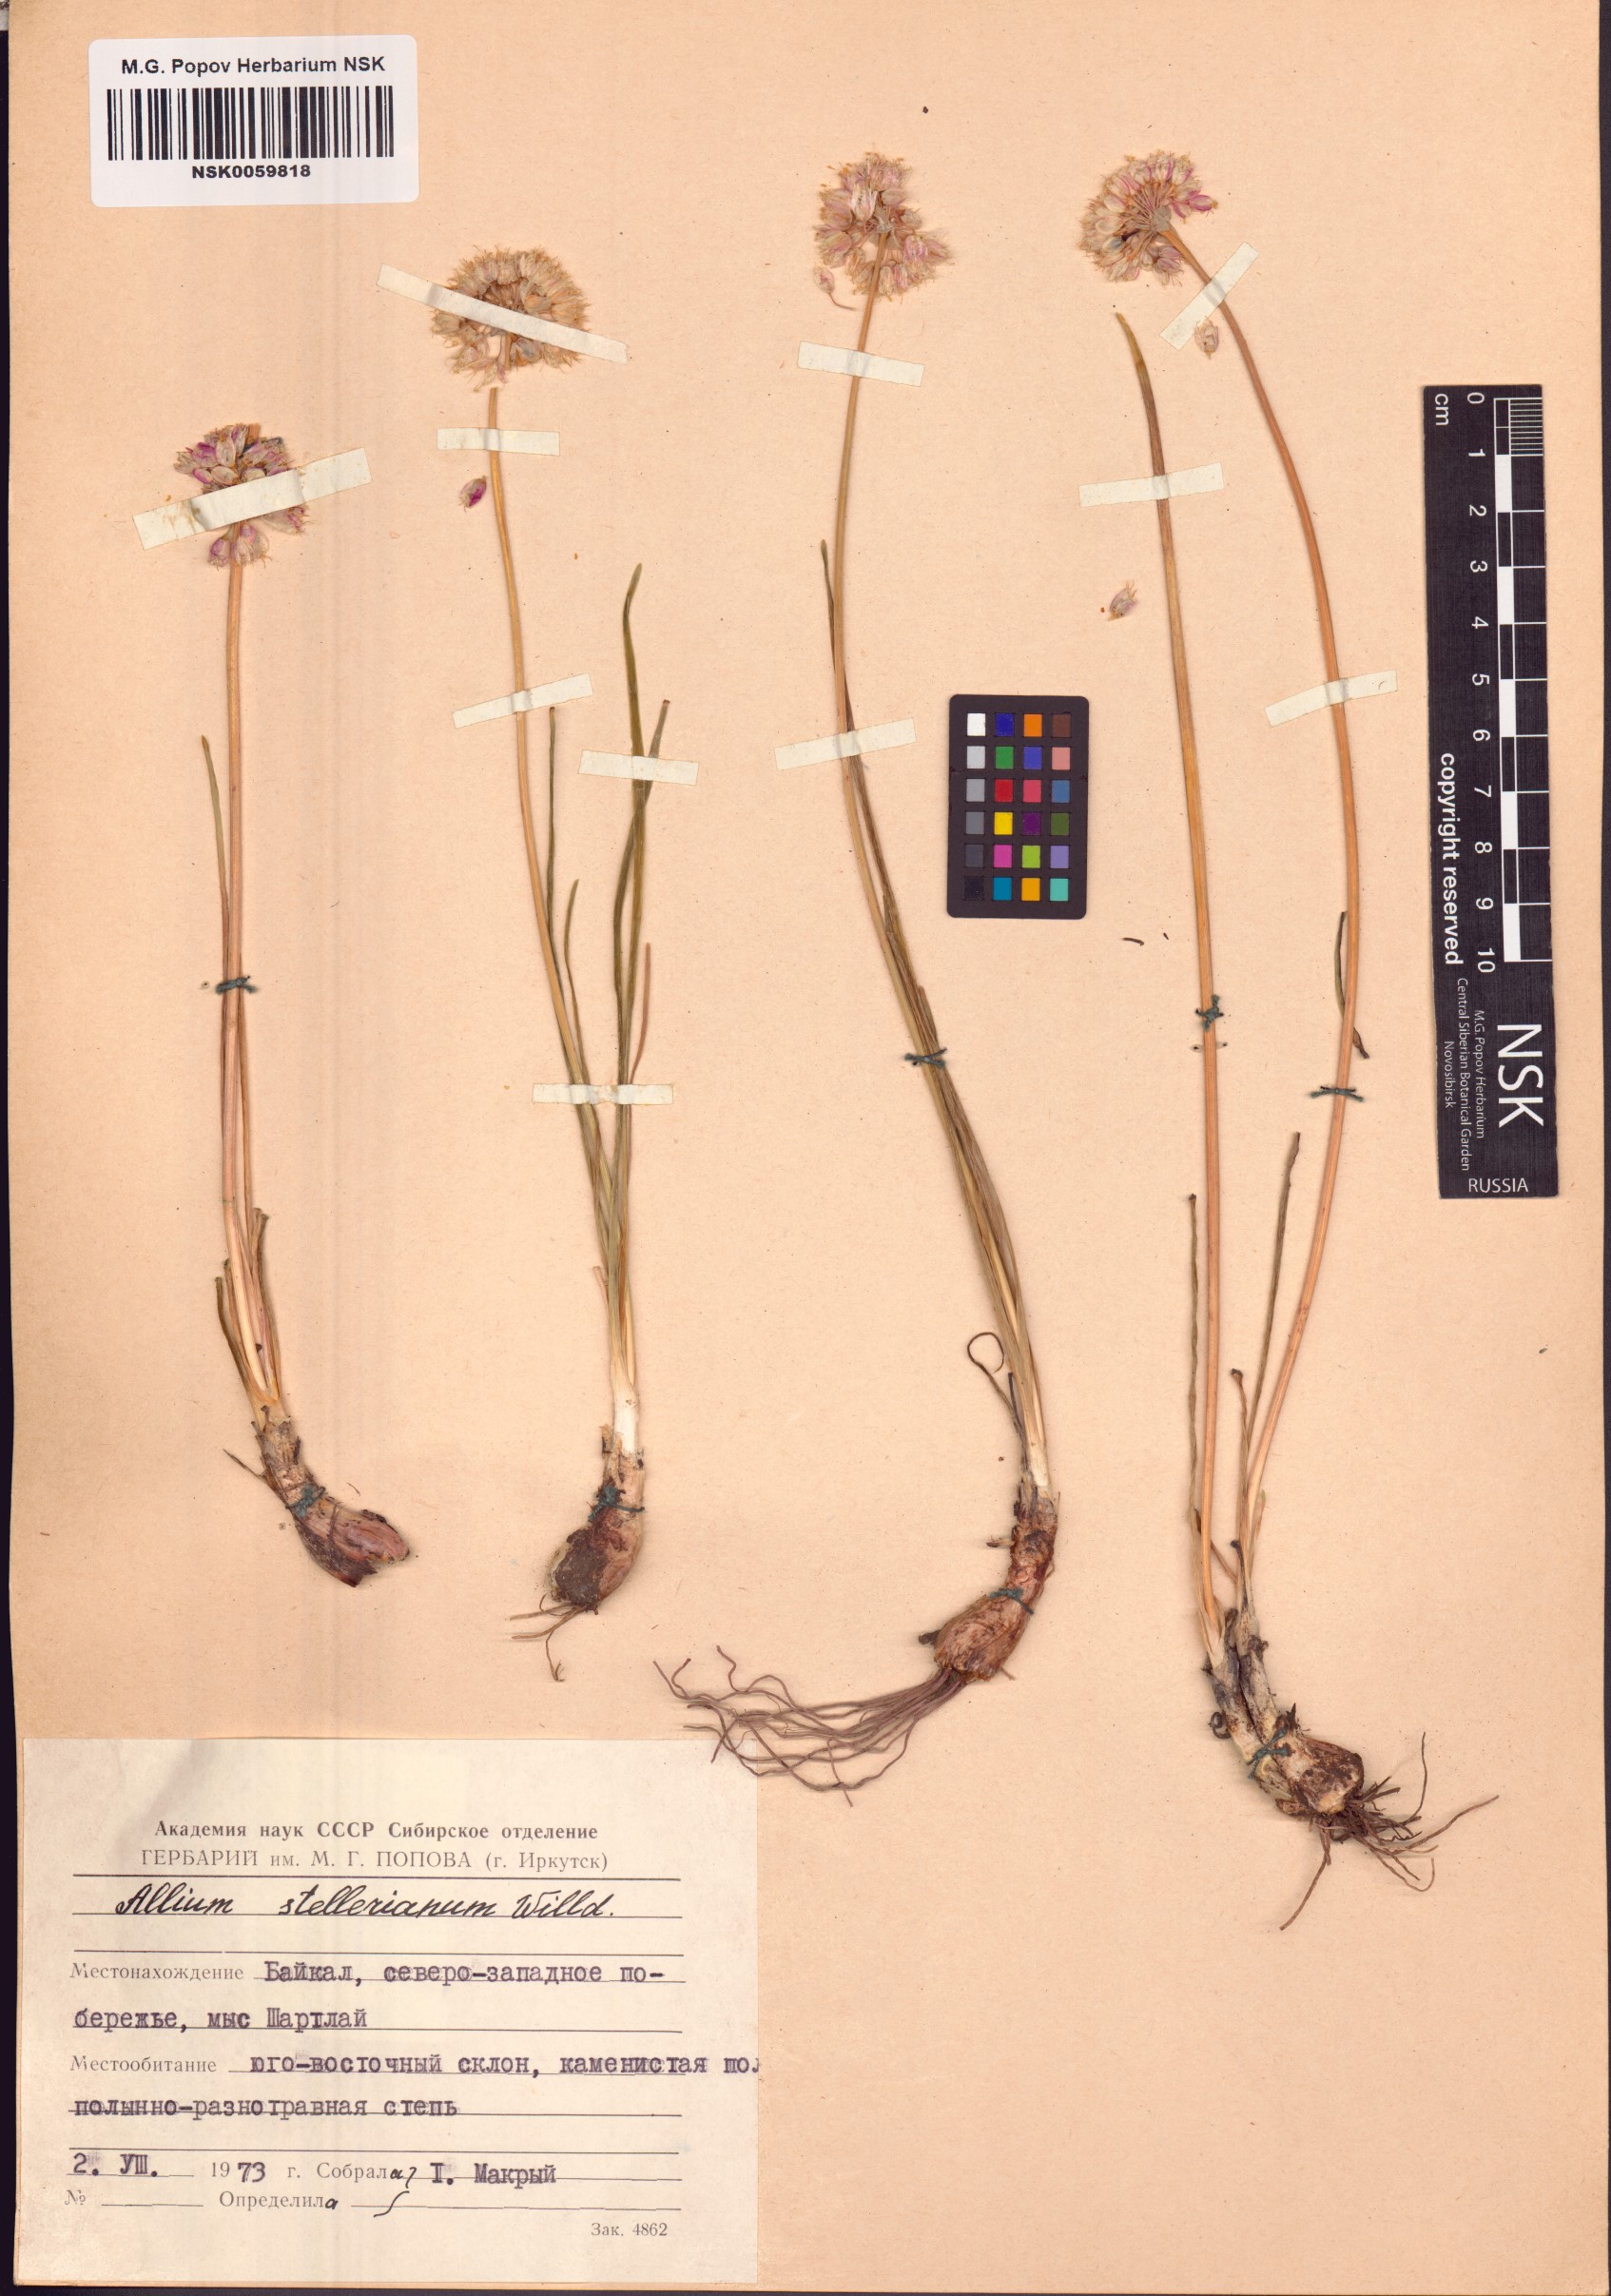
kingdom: Plantae
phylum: Tracheophyta
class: Liliopsida
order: Asparagales
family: Amaryllidaceae
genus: Allium
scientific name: Allium stellerianum
